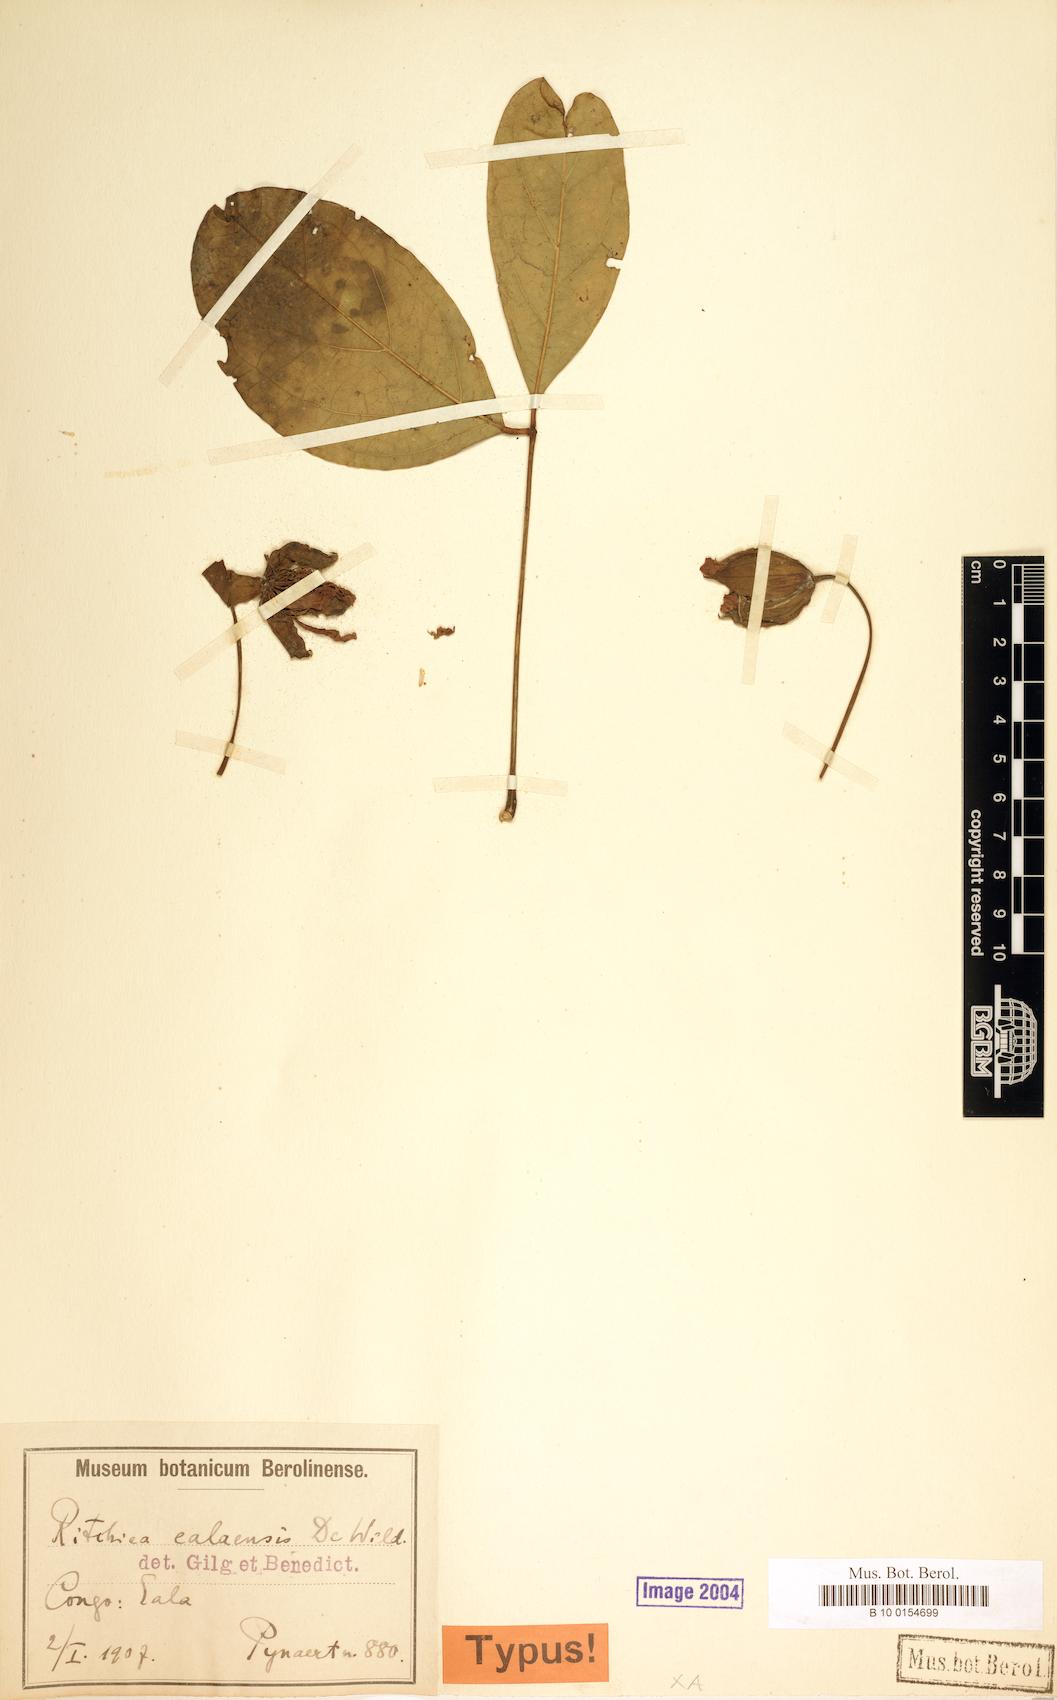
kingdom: Plantae
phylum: Tracheophyta
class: Magnoliopsida
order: Brassicales
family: Capparaceae
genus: Ritchiea
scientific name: Ritchiea capparoides
